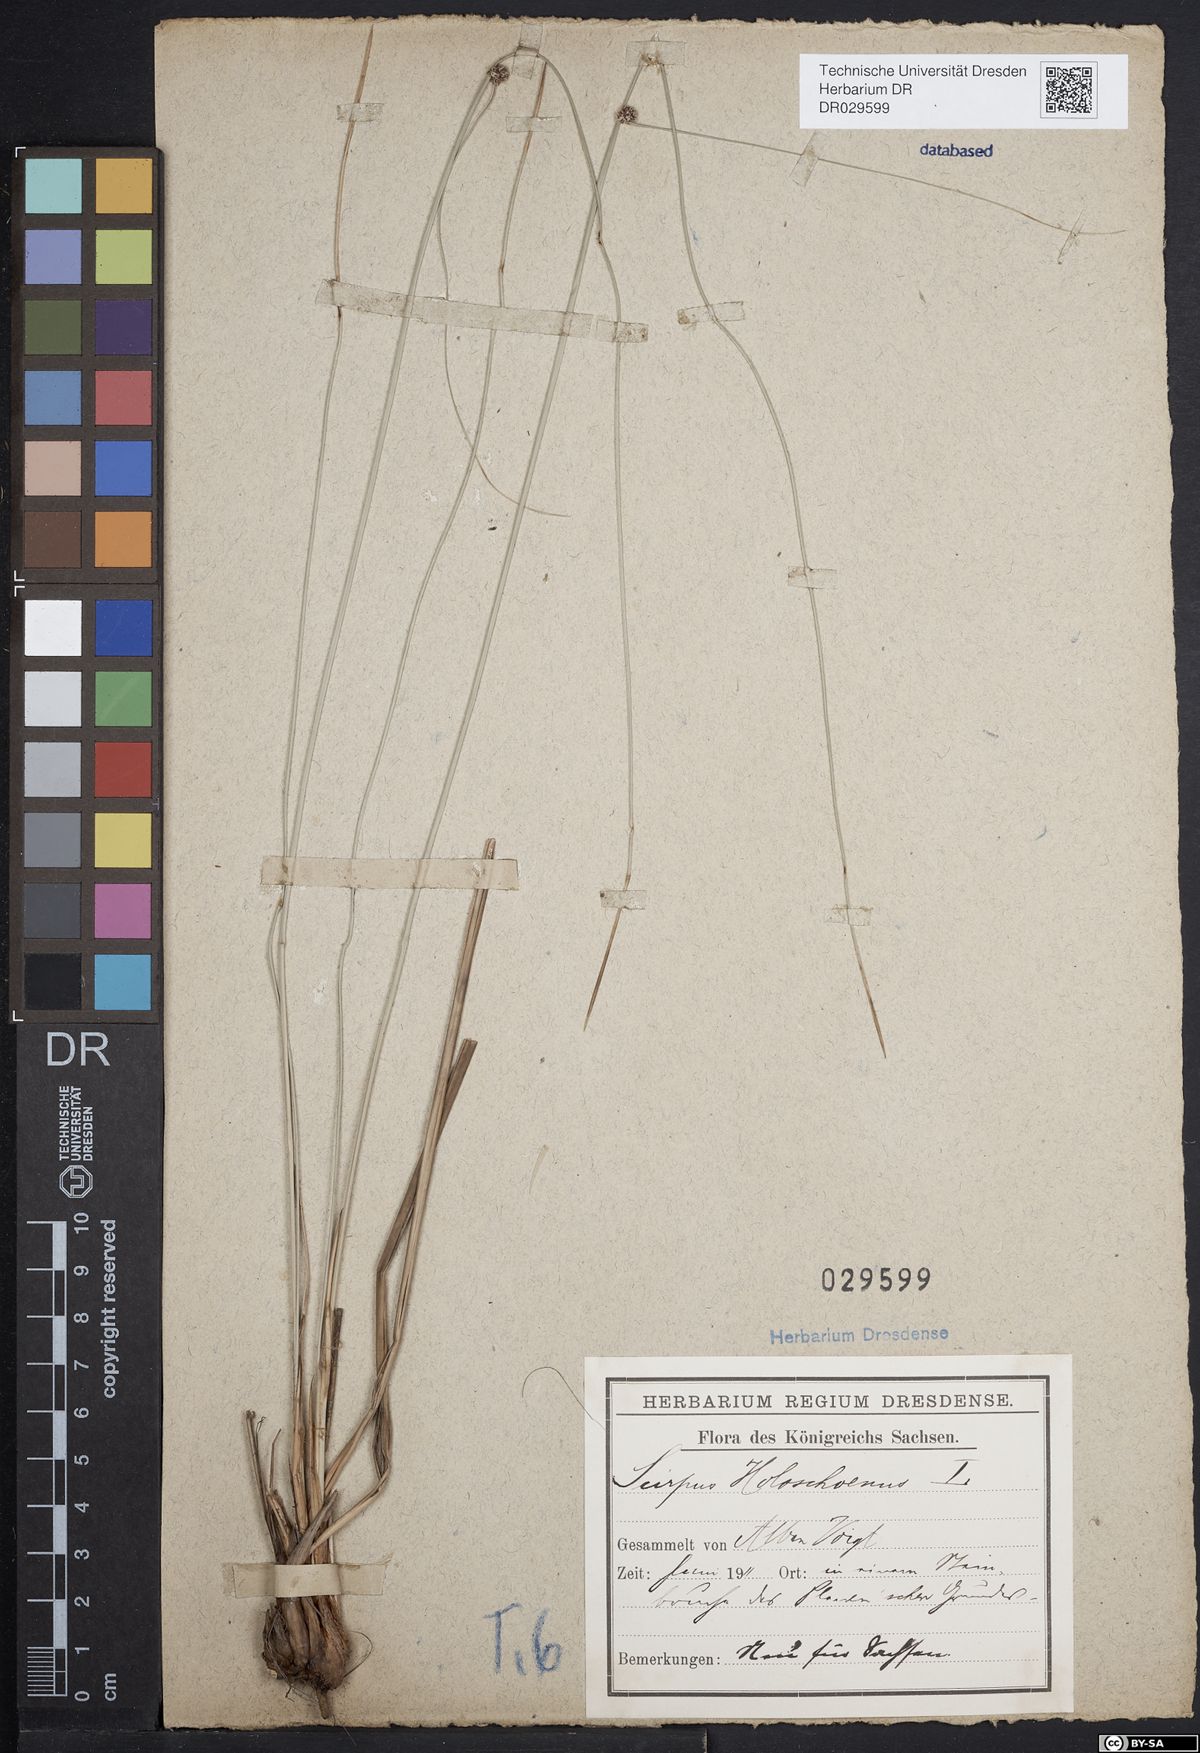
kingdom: Plantae
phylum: Tracheophyta
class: Liliopsida
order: Poales
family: Cyperaceae
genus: Scirpoides
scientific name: Scirpoides holoschoenus
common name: Round-headed club-rush
